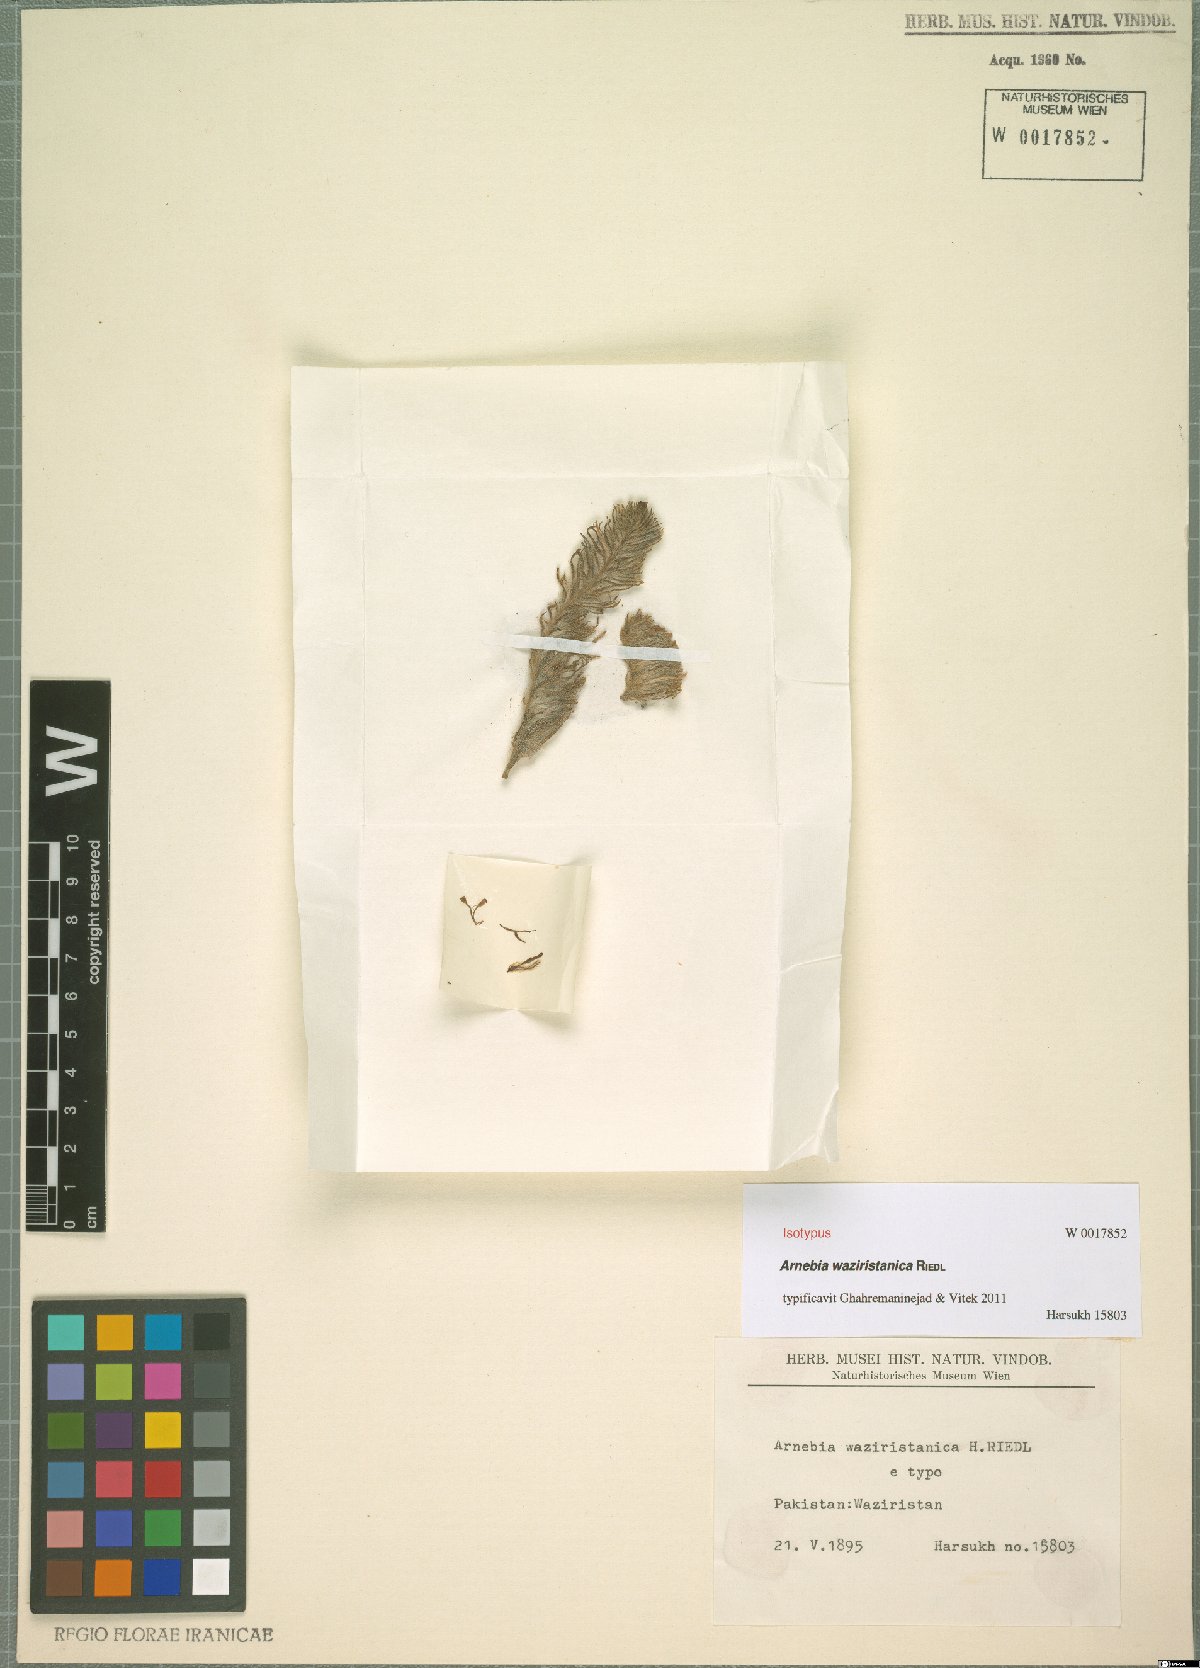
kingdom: Plantae
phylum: Tracheophyta
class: Magnoliopsida
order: Boraginales
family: Boraginaceae
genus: Arnebia
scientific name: Arnebia waziristanica
